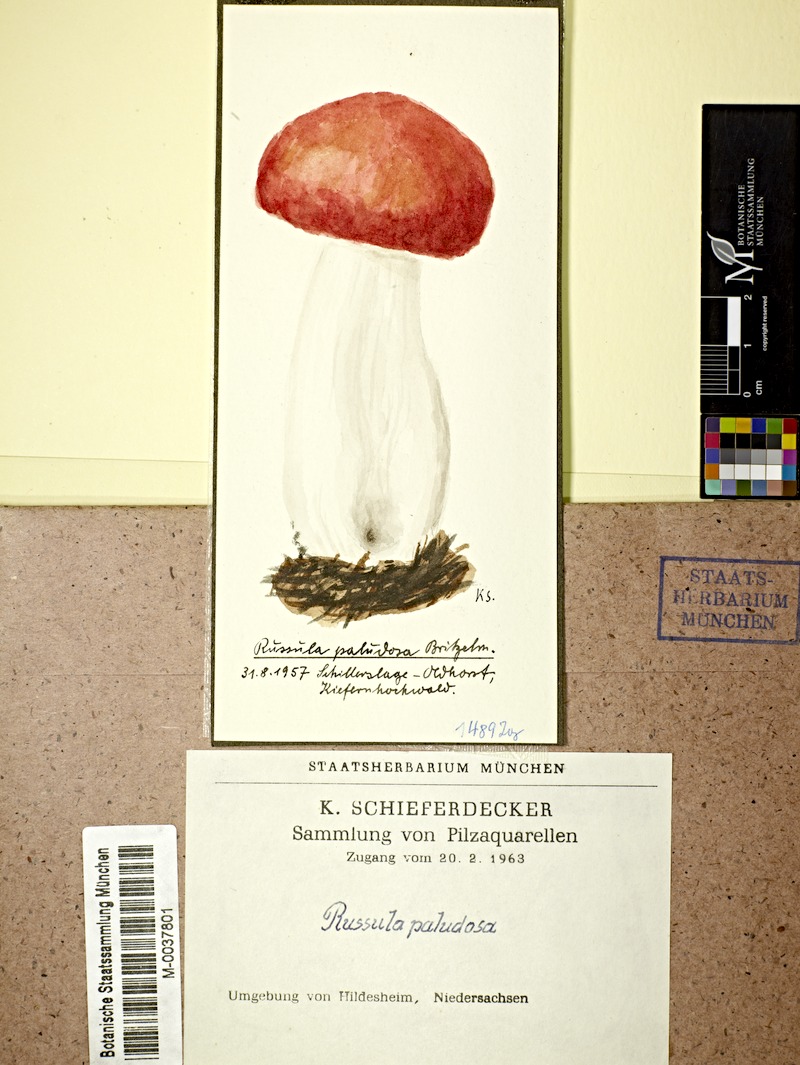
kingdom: Fungi
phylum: Basidiomycota
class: Agaricomycetes
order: Russulales
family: Russulaceae
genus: Russula
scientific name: Russula paludosa
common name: Hintapink
